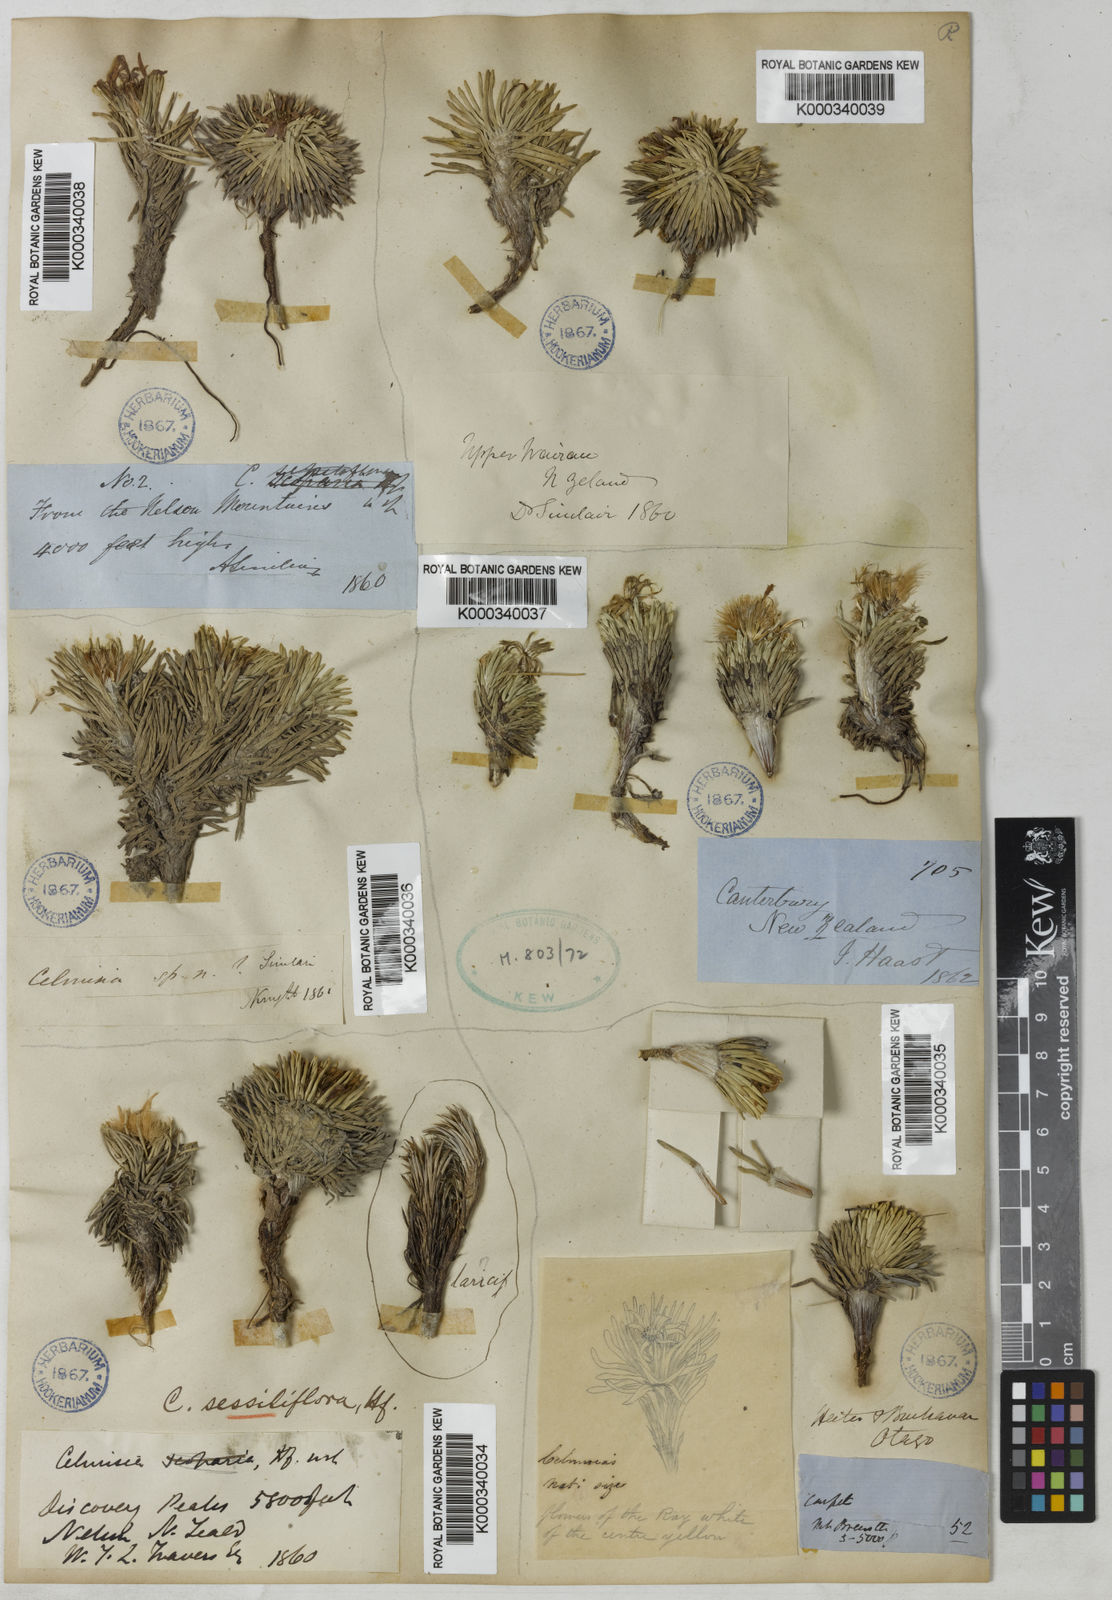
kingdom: Plantae
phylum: Tracheophyta
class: Magnoliopsida
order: Asterales
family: Asteraceae
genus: Celmisia
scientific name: Celmisia sessiliflora
